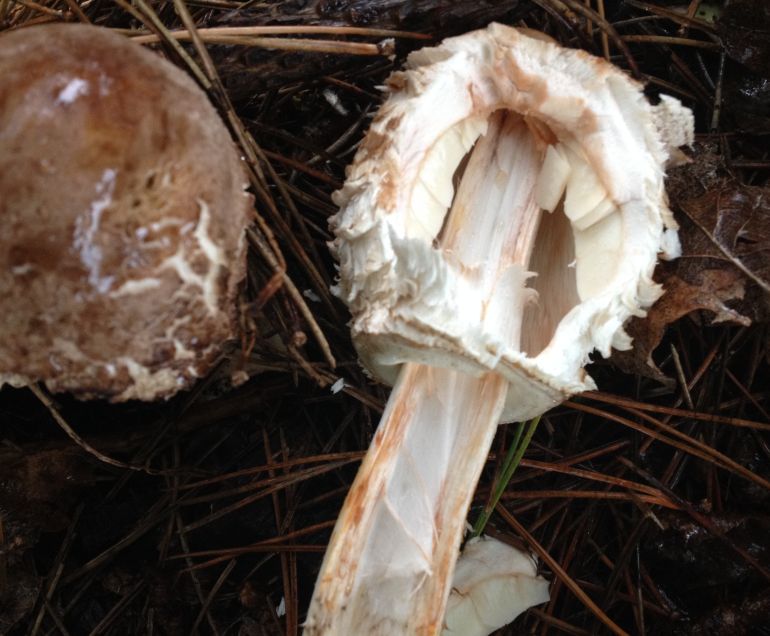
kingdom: Fungi
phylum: Basidiomycota
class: Agaricomycetes
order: Agaricales
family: Agaricaceae
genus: Chlorophyllum
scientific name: Chlorophyllum rhacodes
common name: ægte rabarberhat
